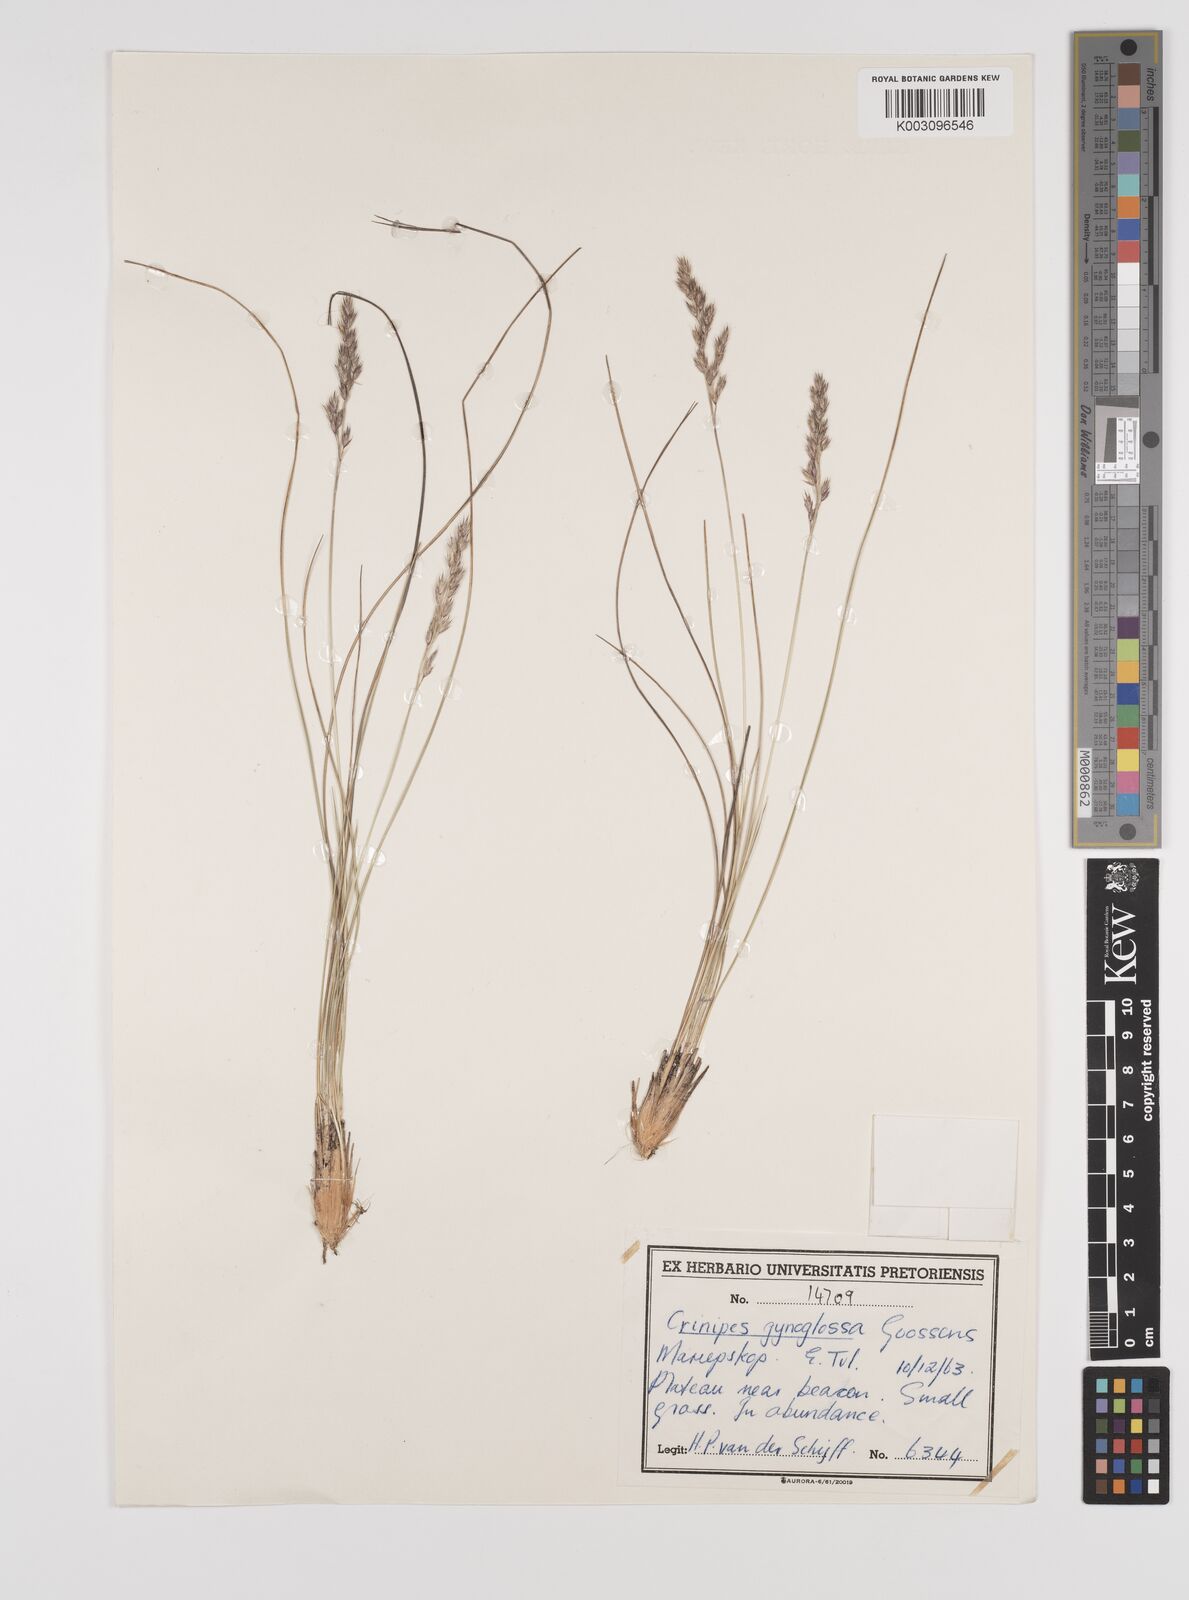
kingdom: Plantae
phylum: Tracheophyta
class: Liliopsida
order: Poales
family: Poaceae
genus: Styppeiochloa
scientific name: Styppeiochloa gynoglossa
